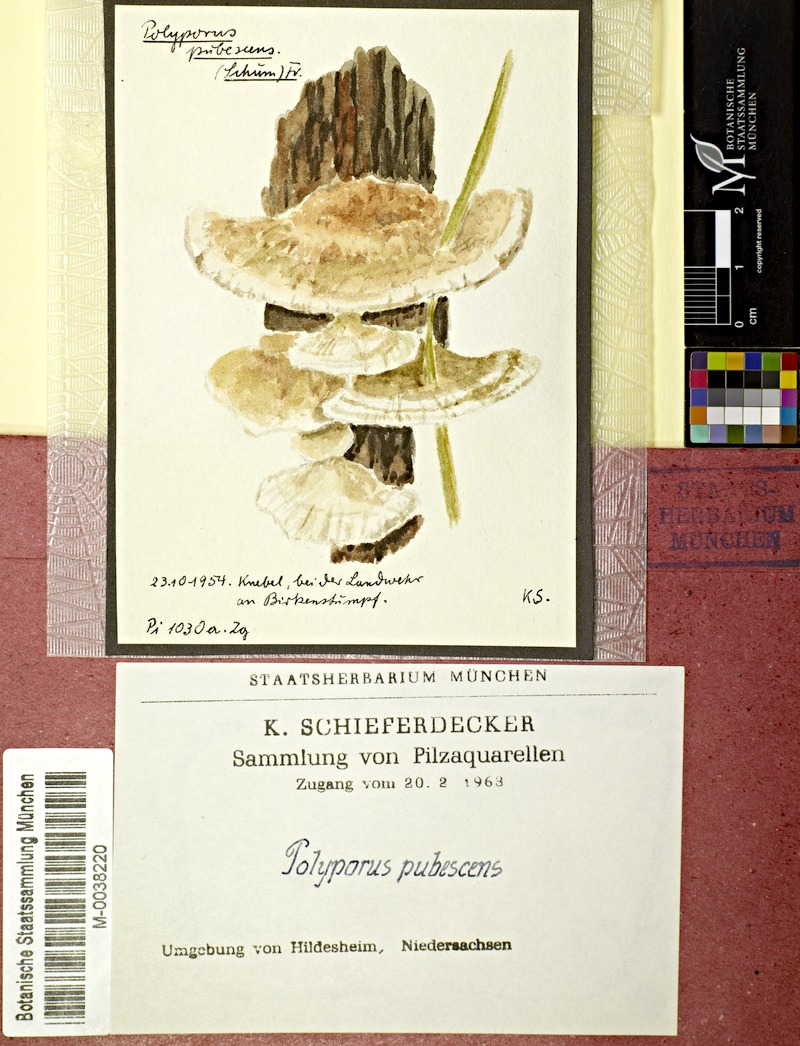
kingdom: Fungi
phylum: Basidiomycota
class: Agaricomycetes
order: Polyporales
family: Polyporaceae
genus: Trametes
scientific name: Trametes pubescens
